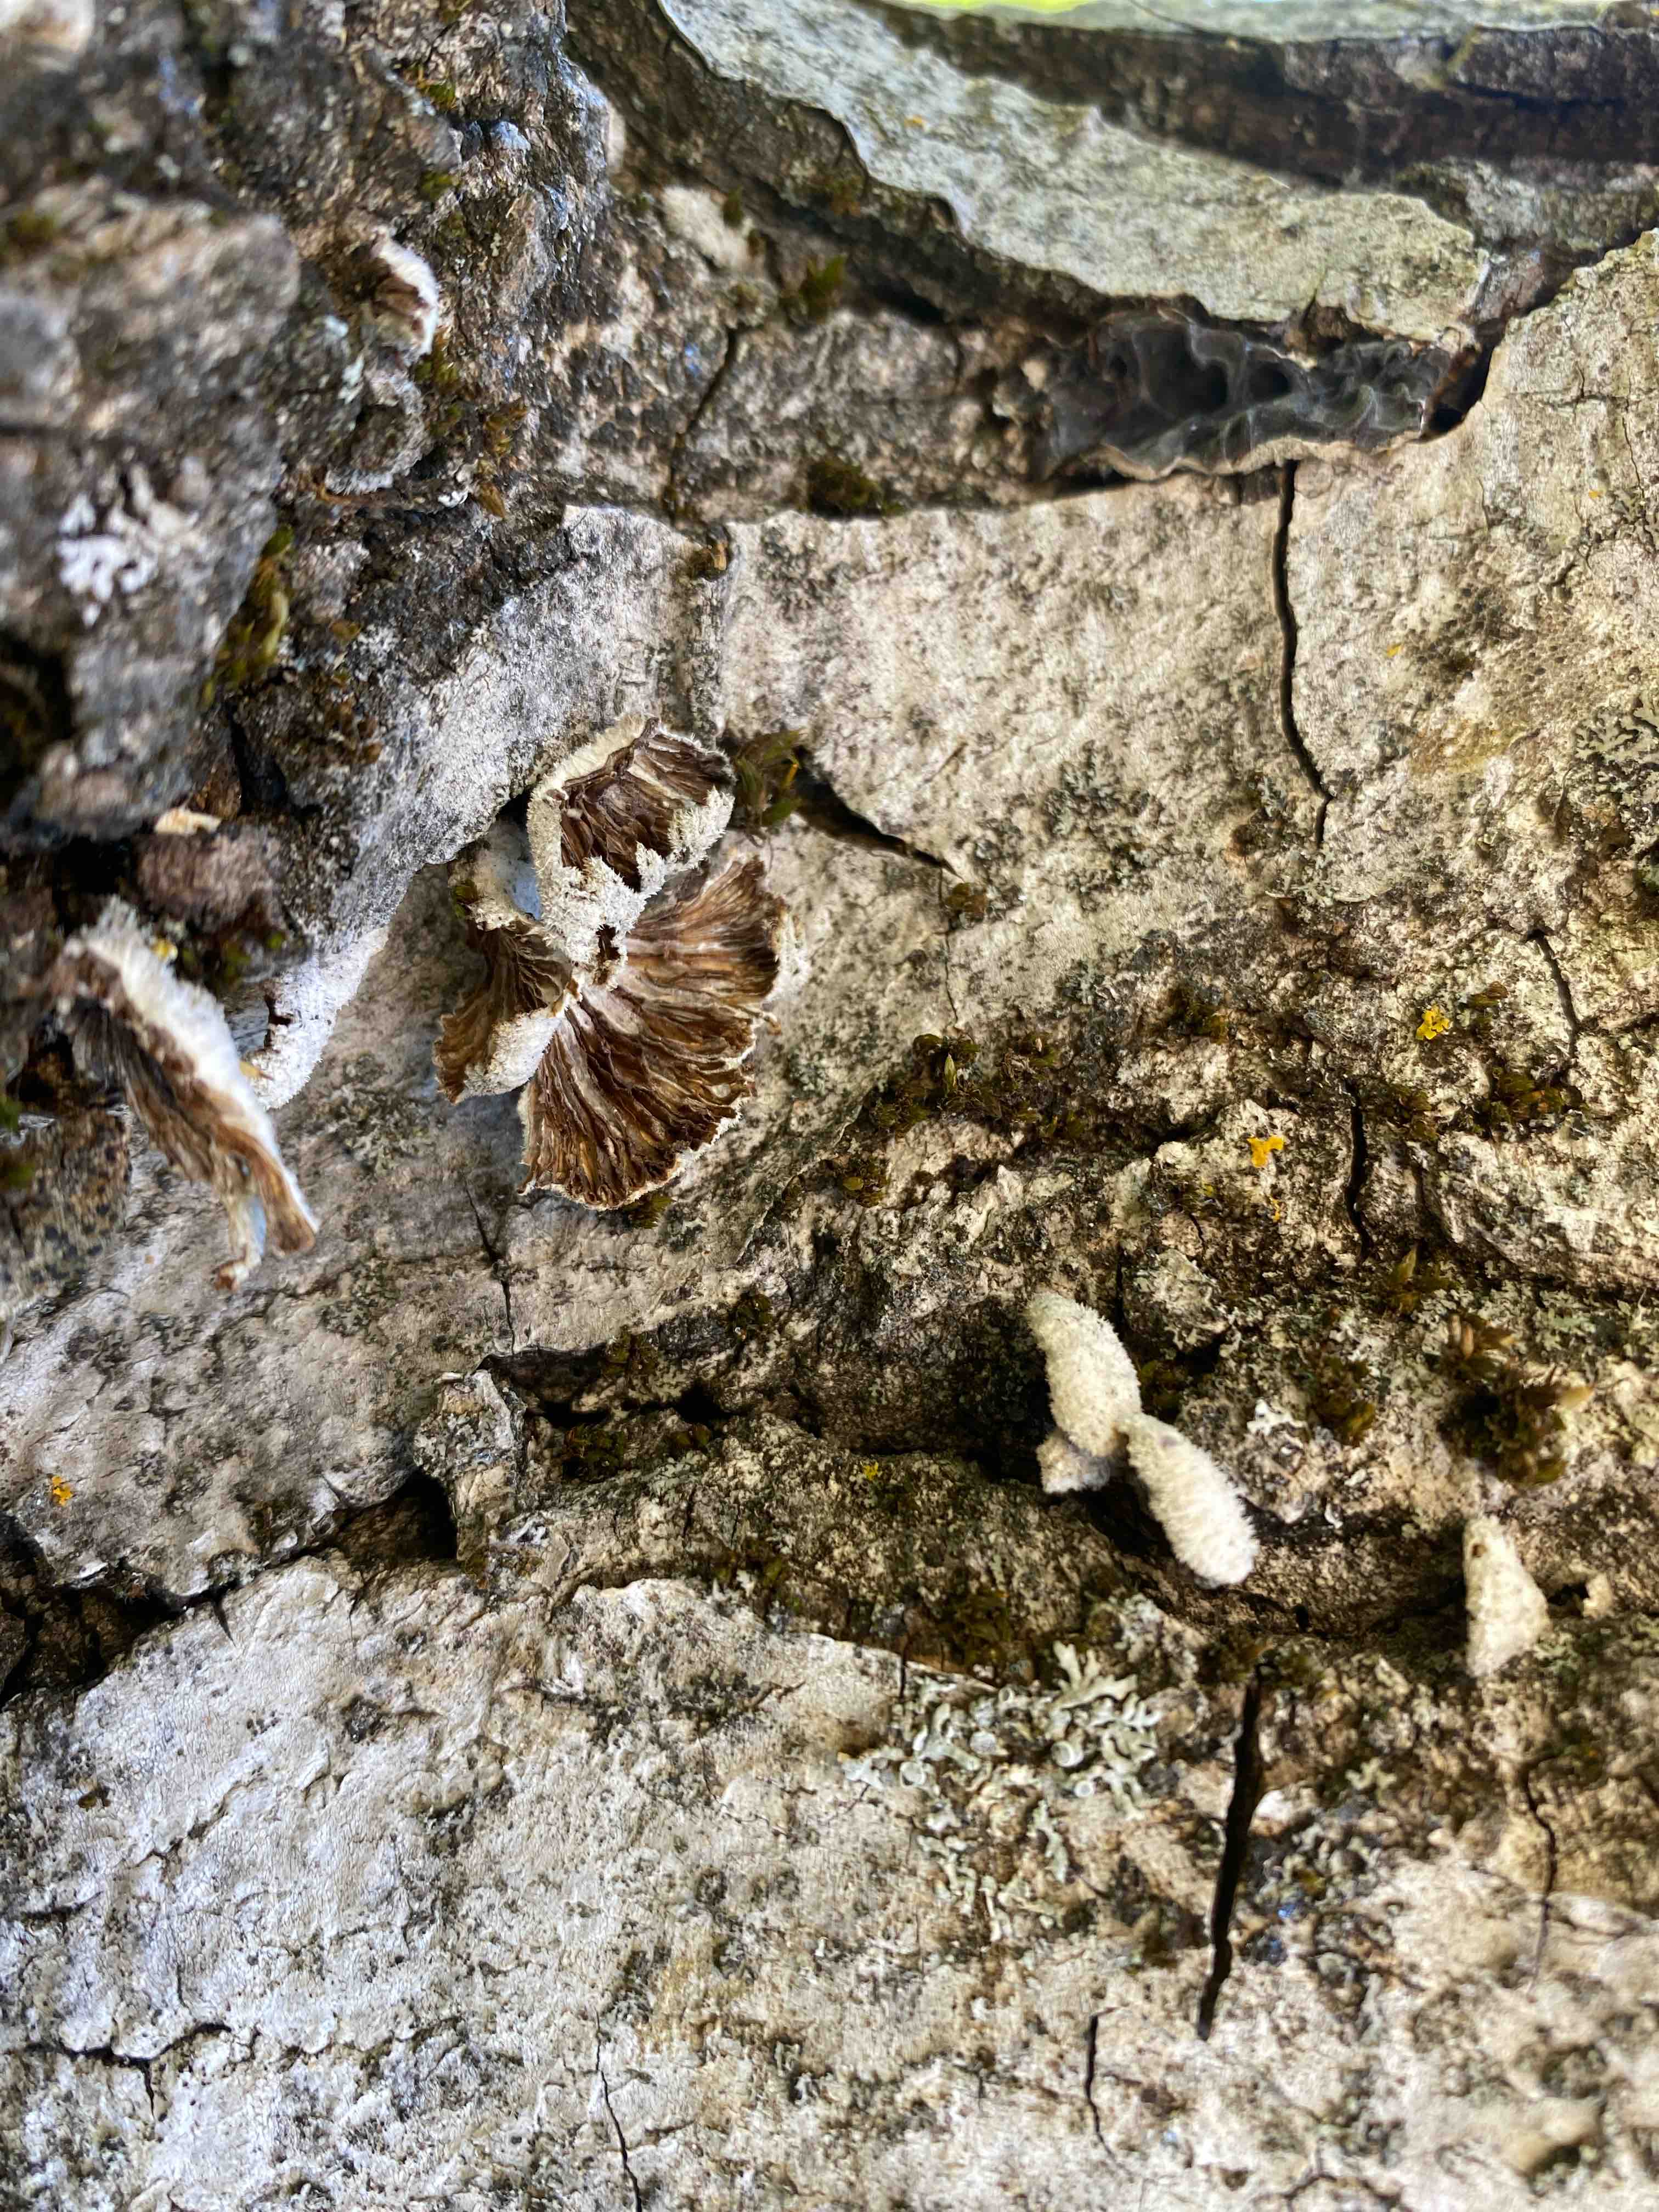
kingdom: Fungi
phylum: Basidiomycota
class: Agaricomycetes
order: Agaricales
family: Schizophyllaceae
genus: Schizophyllum
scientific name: Schizophyllum commune
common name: kløvblad
